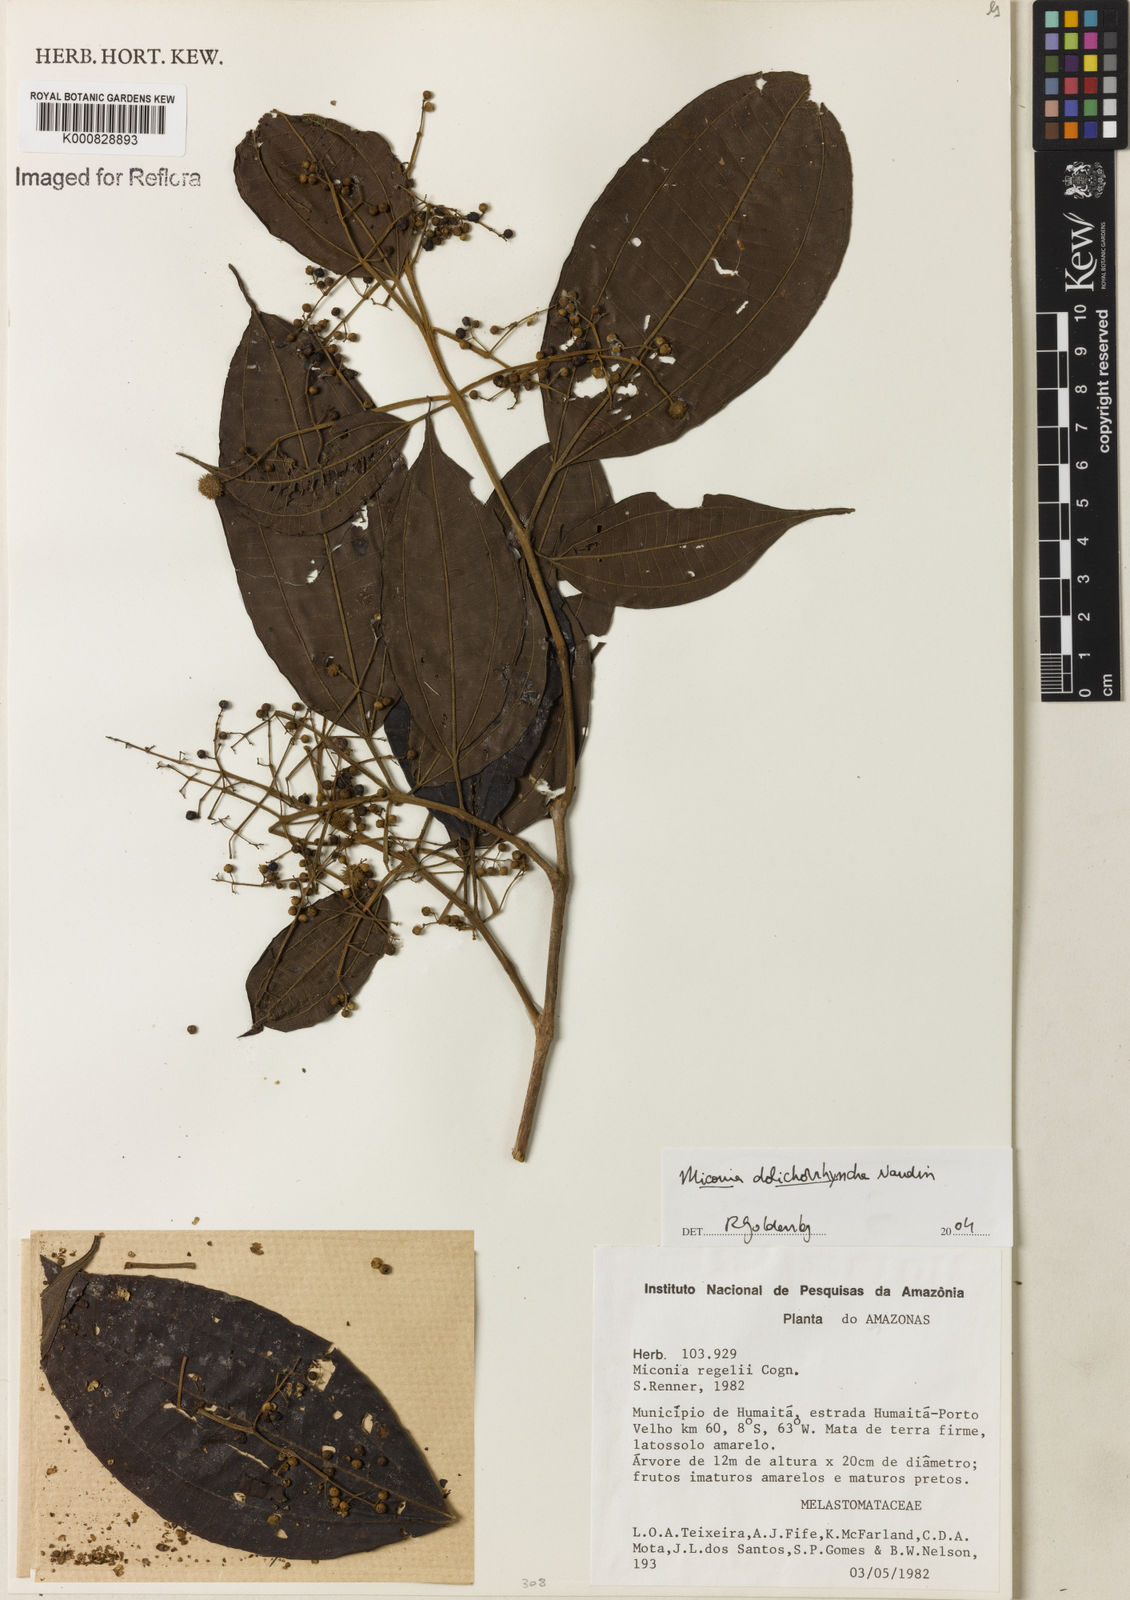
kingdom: Plantae
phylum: Tracheophyta
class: Magnoliopsida
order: Myrtales
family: Melastomataceae
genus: Miconia
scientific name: Miconia dolichorrhyncha
